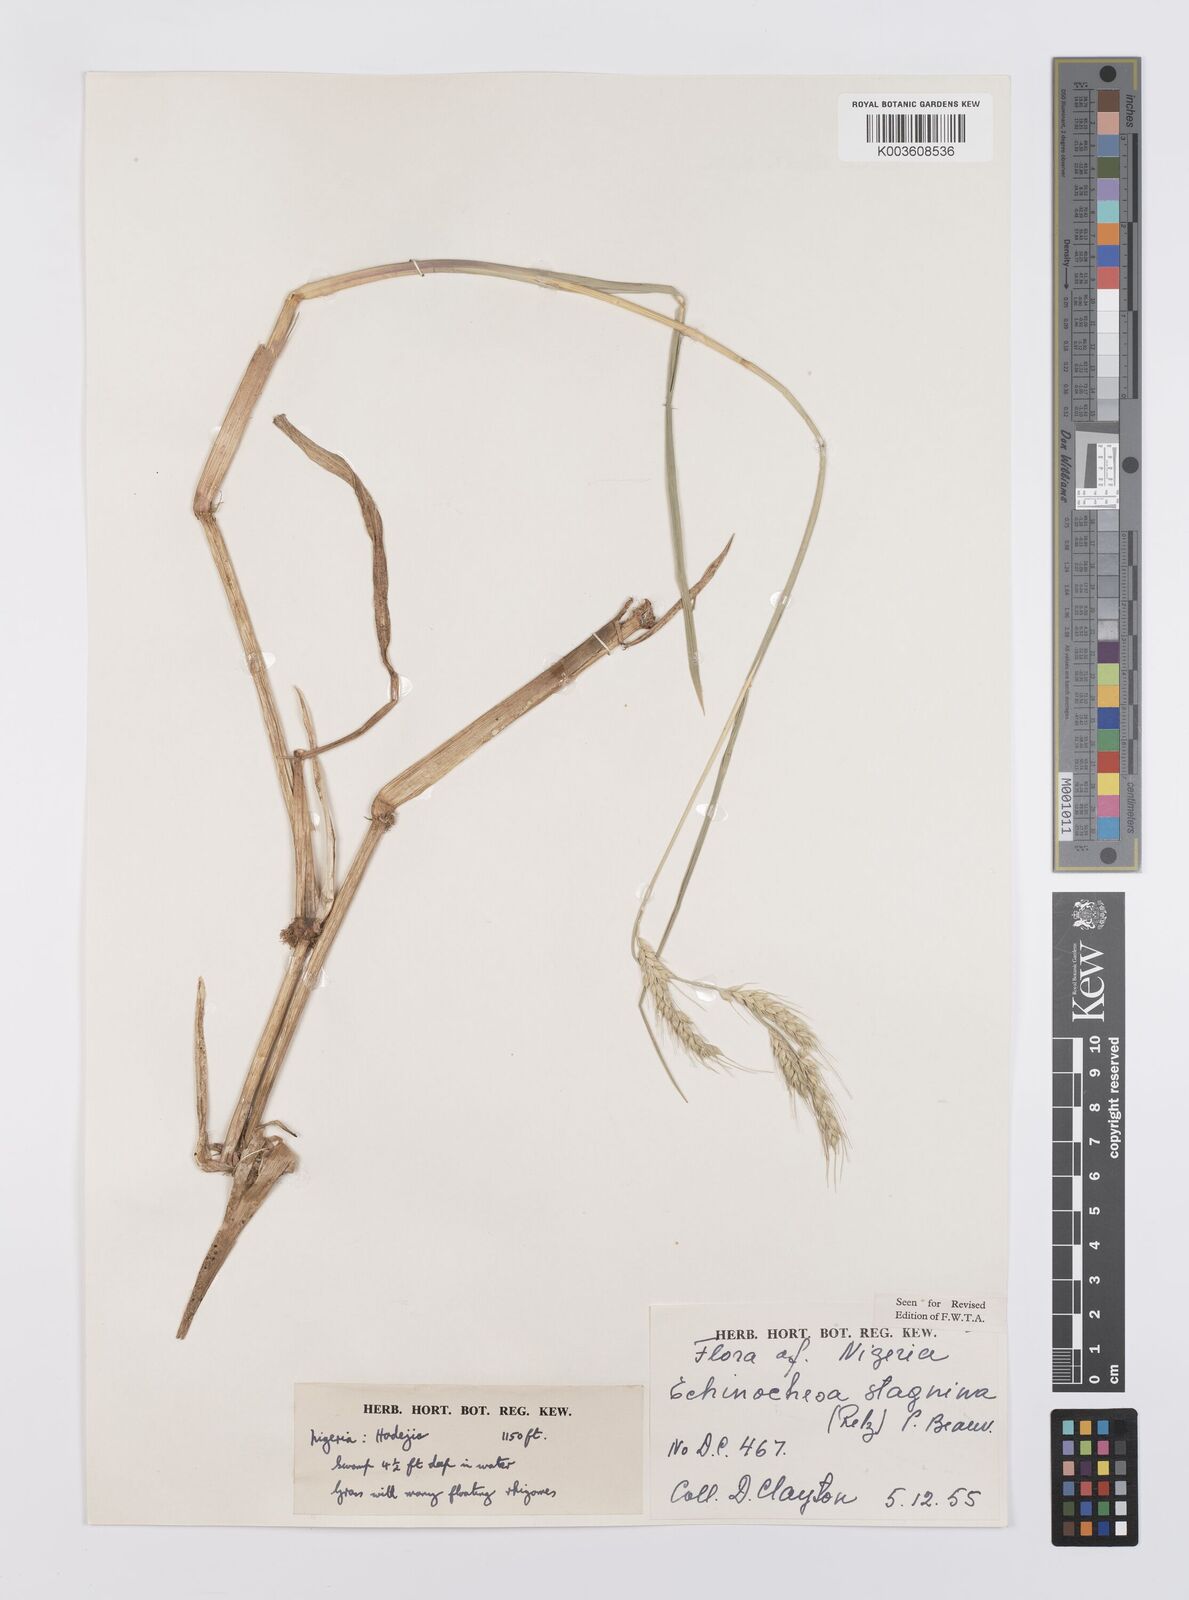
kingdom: Plantae
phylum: Tracheophyta
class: Liliopsida
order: Poales
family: Poaceae
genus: Echinochloa
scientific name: Echinochloa stagnina
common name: Burgu grass
